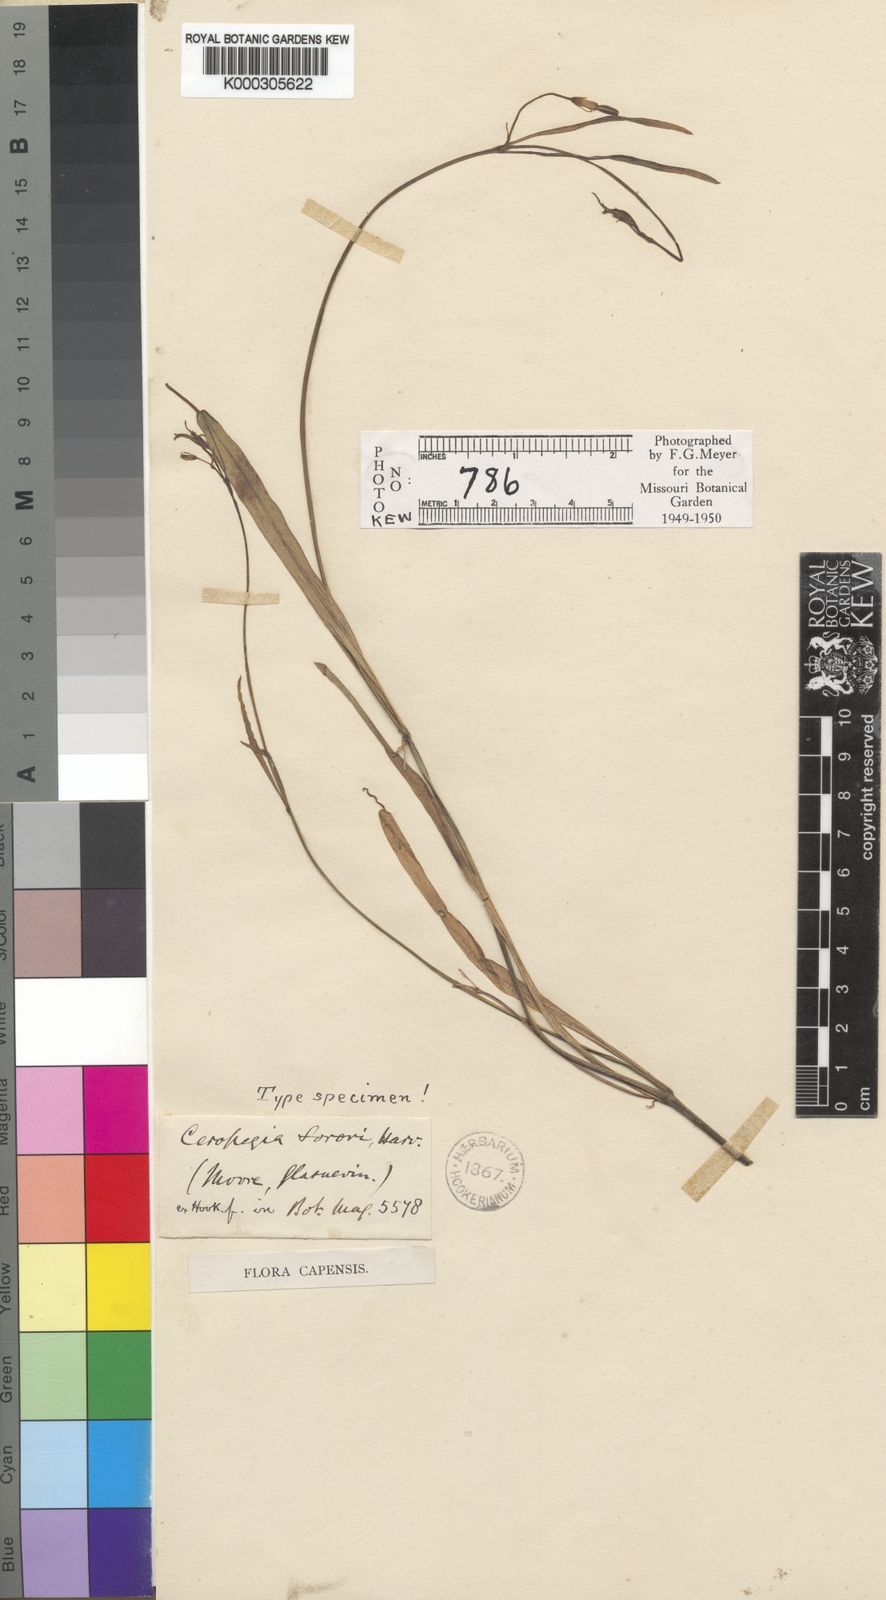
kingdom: Plantae
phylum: Tracheophyta
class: Magnoliopsida
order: Gentianales
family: Apocynaceae
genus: Ceropegia
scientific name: Ceropegia bowkeri
